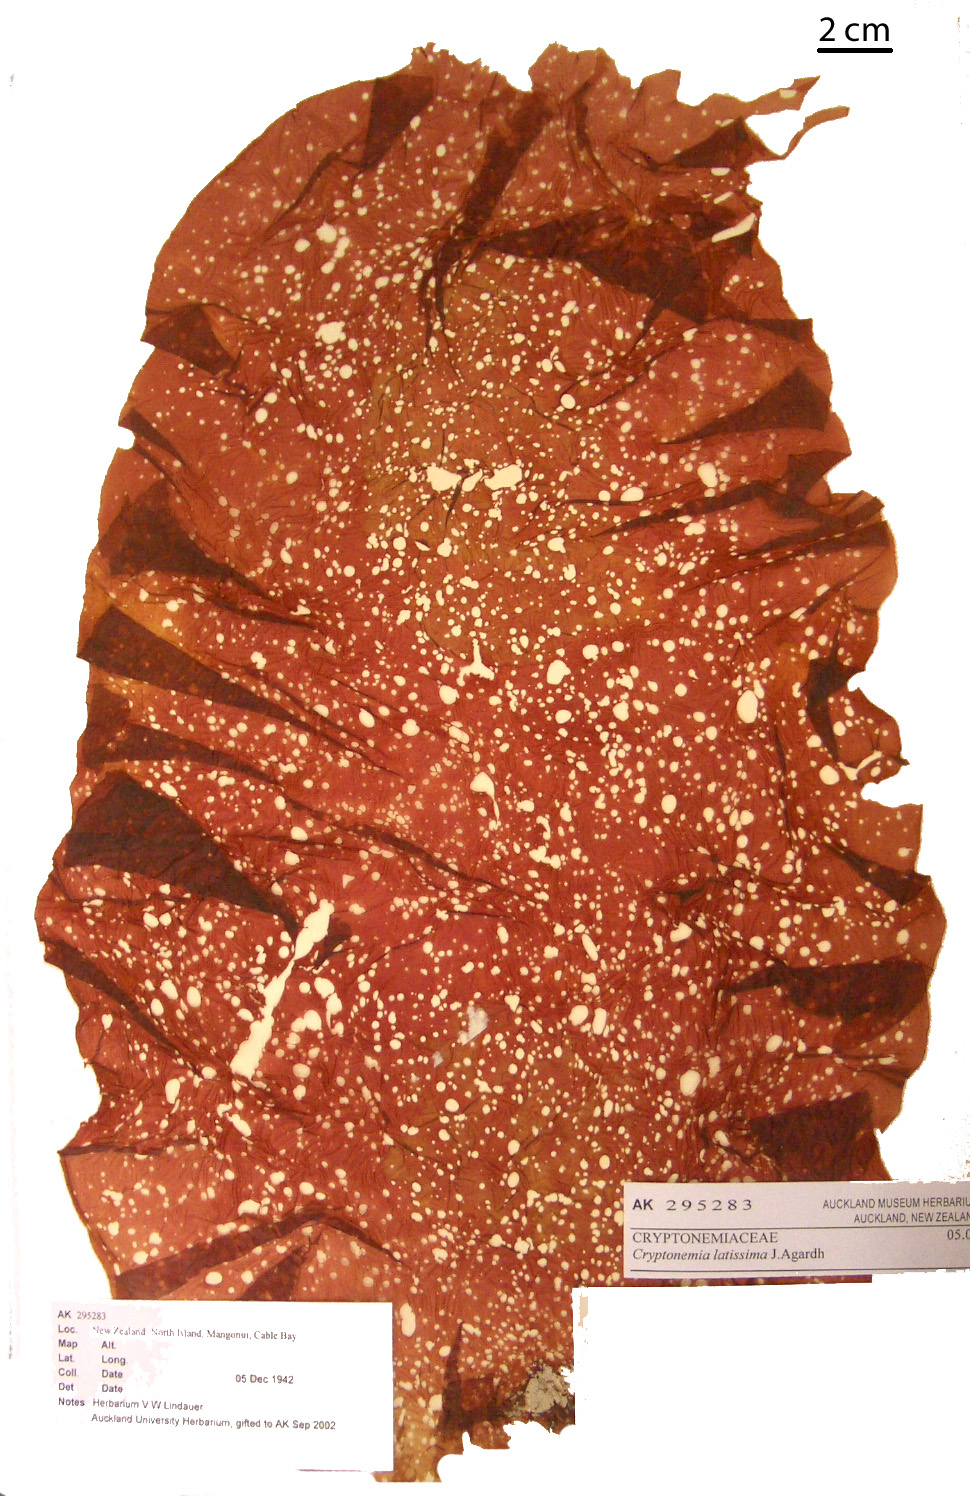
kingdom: Plantae
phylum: Rhodophyta
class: Florideophyceae
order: Halymeniales
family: Halymeniaceae
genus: Galene
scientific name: Galene
